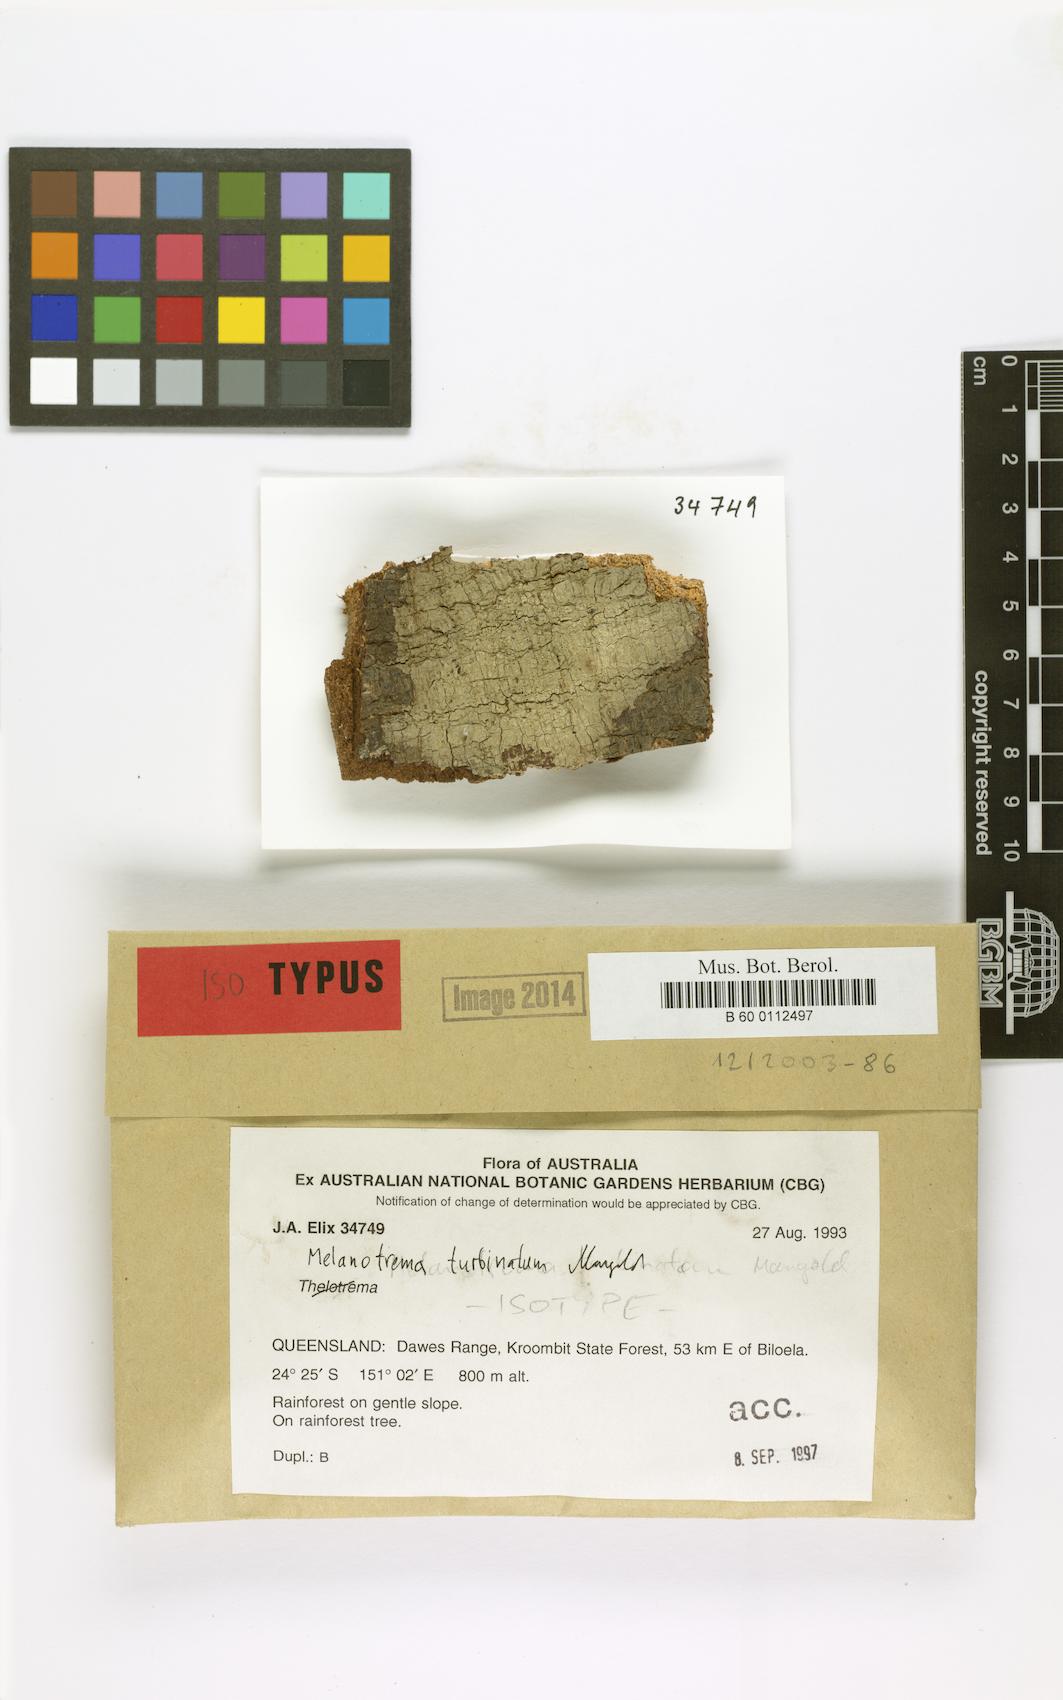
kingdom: Fungi
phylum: Ascomycota
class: Lecanoromycetes
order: Ostropales
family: Graphidaceae
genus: Melanotrema
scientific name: Melanotrema
